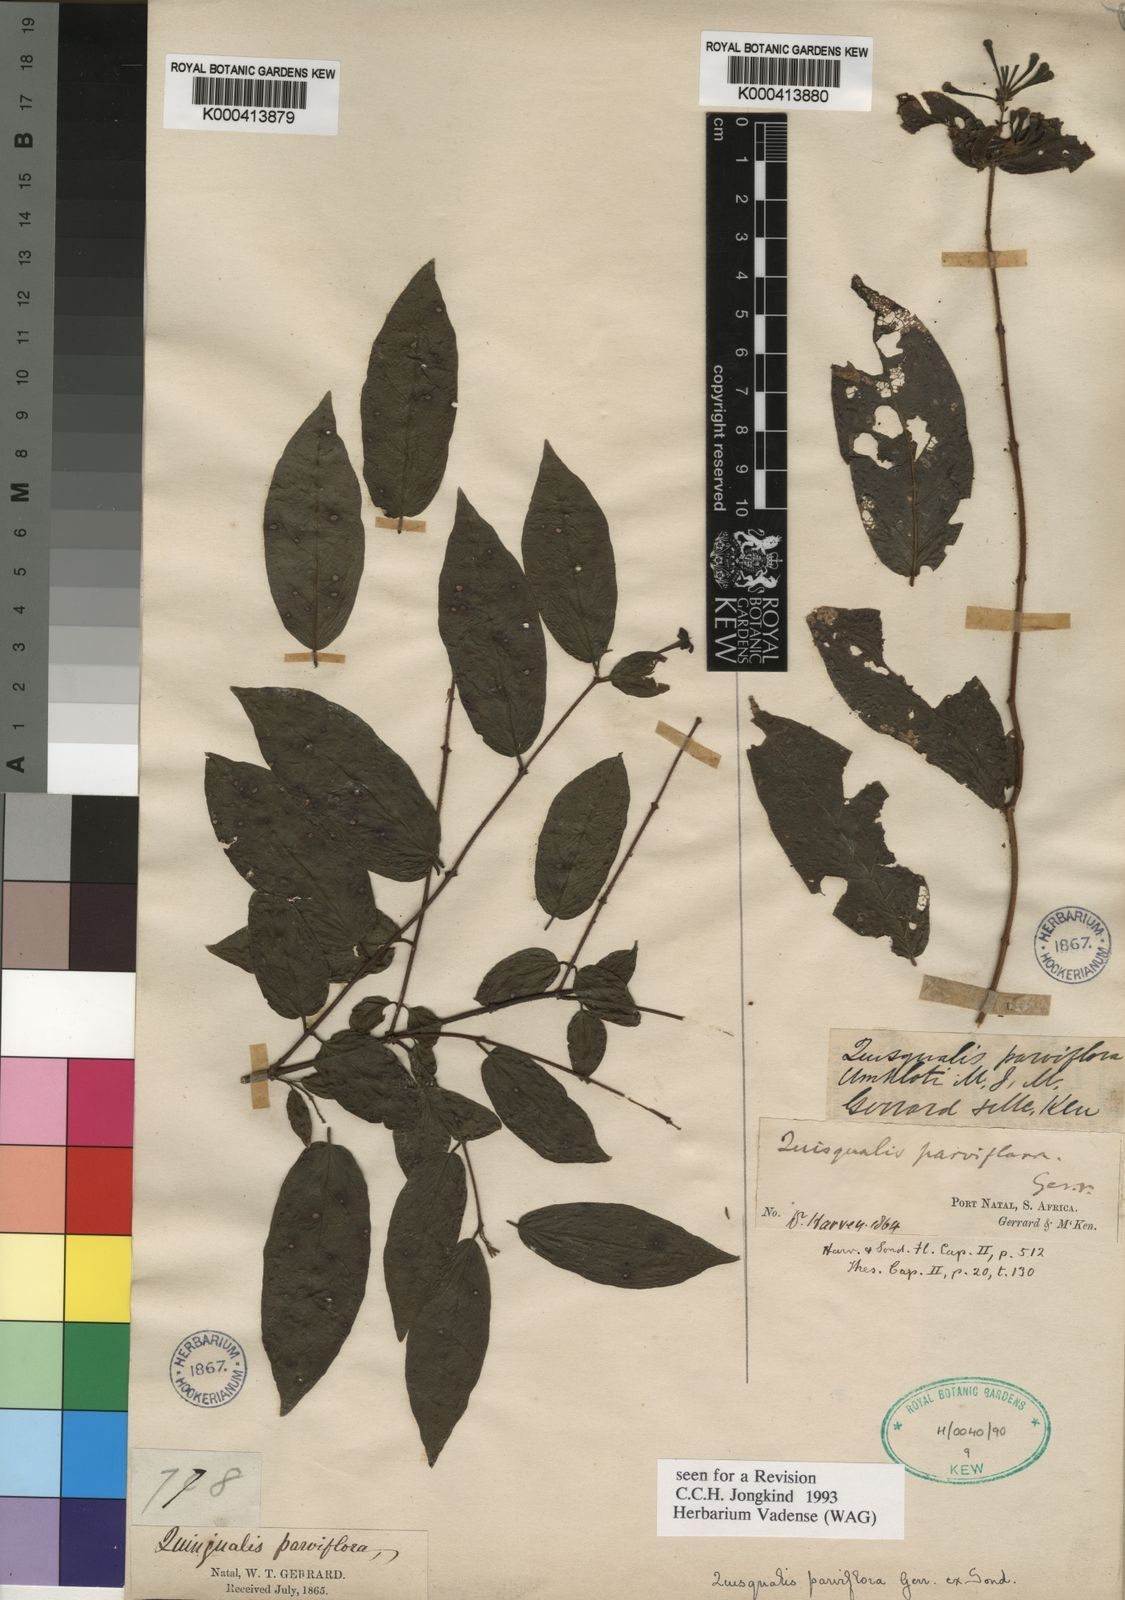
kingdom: Plantae
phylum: Tracheophyta
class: Magnoliopsida
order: Myrtales
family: Combretaceae
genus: Combretum
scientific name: Combretum sylvicola
